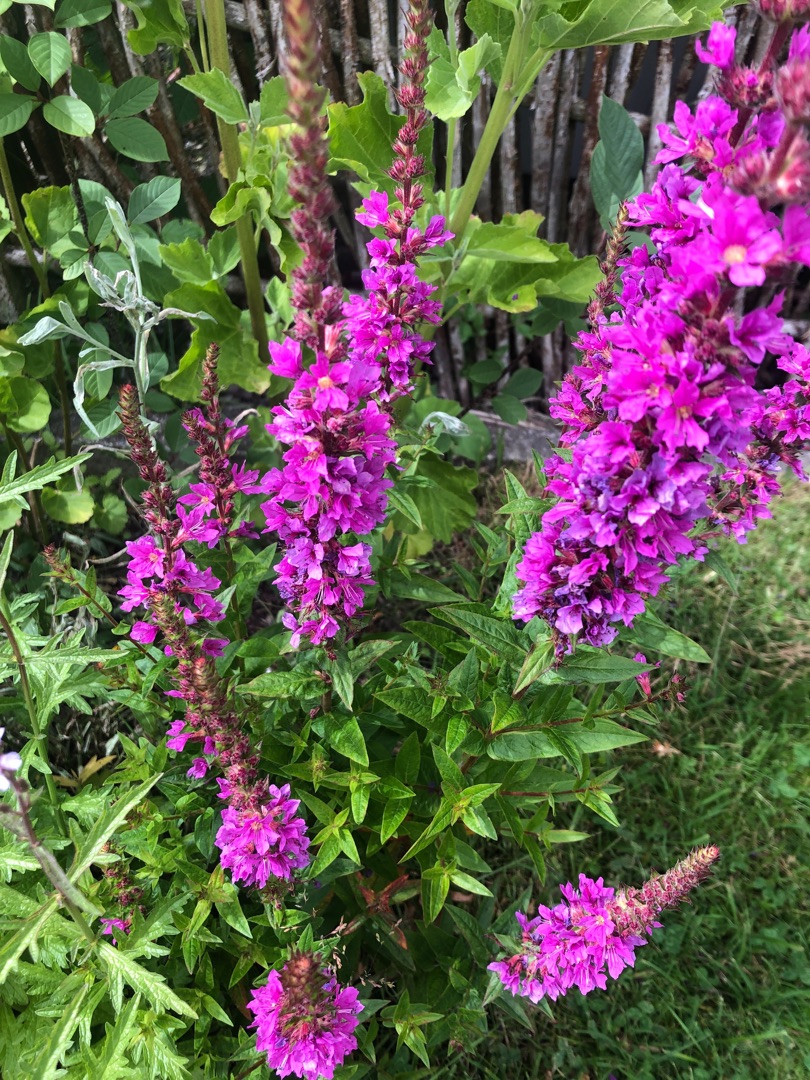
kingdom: Plantae
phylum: Tracheophyta
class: Magnoliopsida
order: Myrtales
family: Lythraceae
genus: Lythrum
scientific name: Lythrum salicaria
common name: Kattehale
